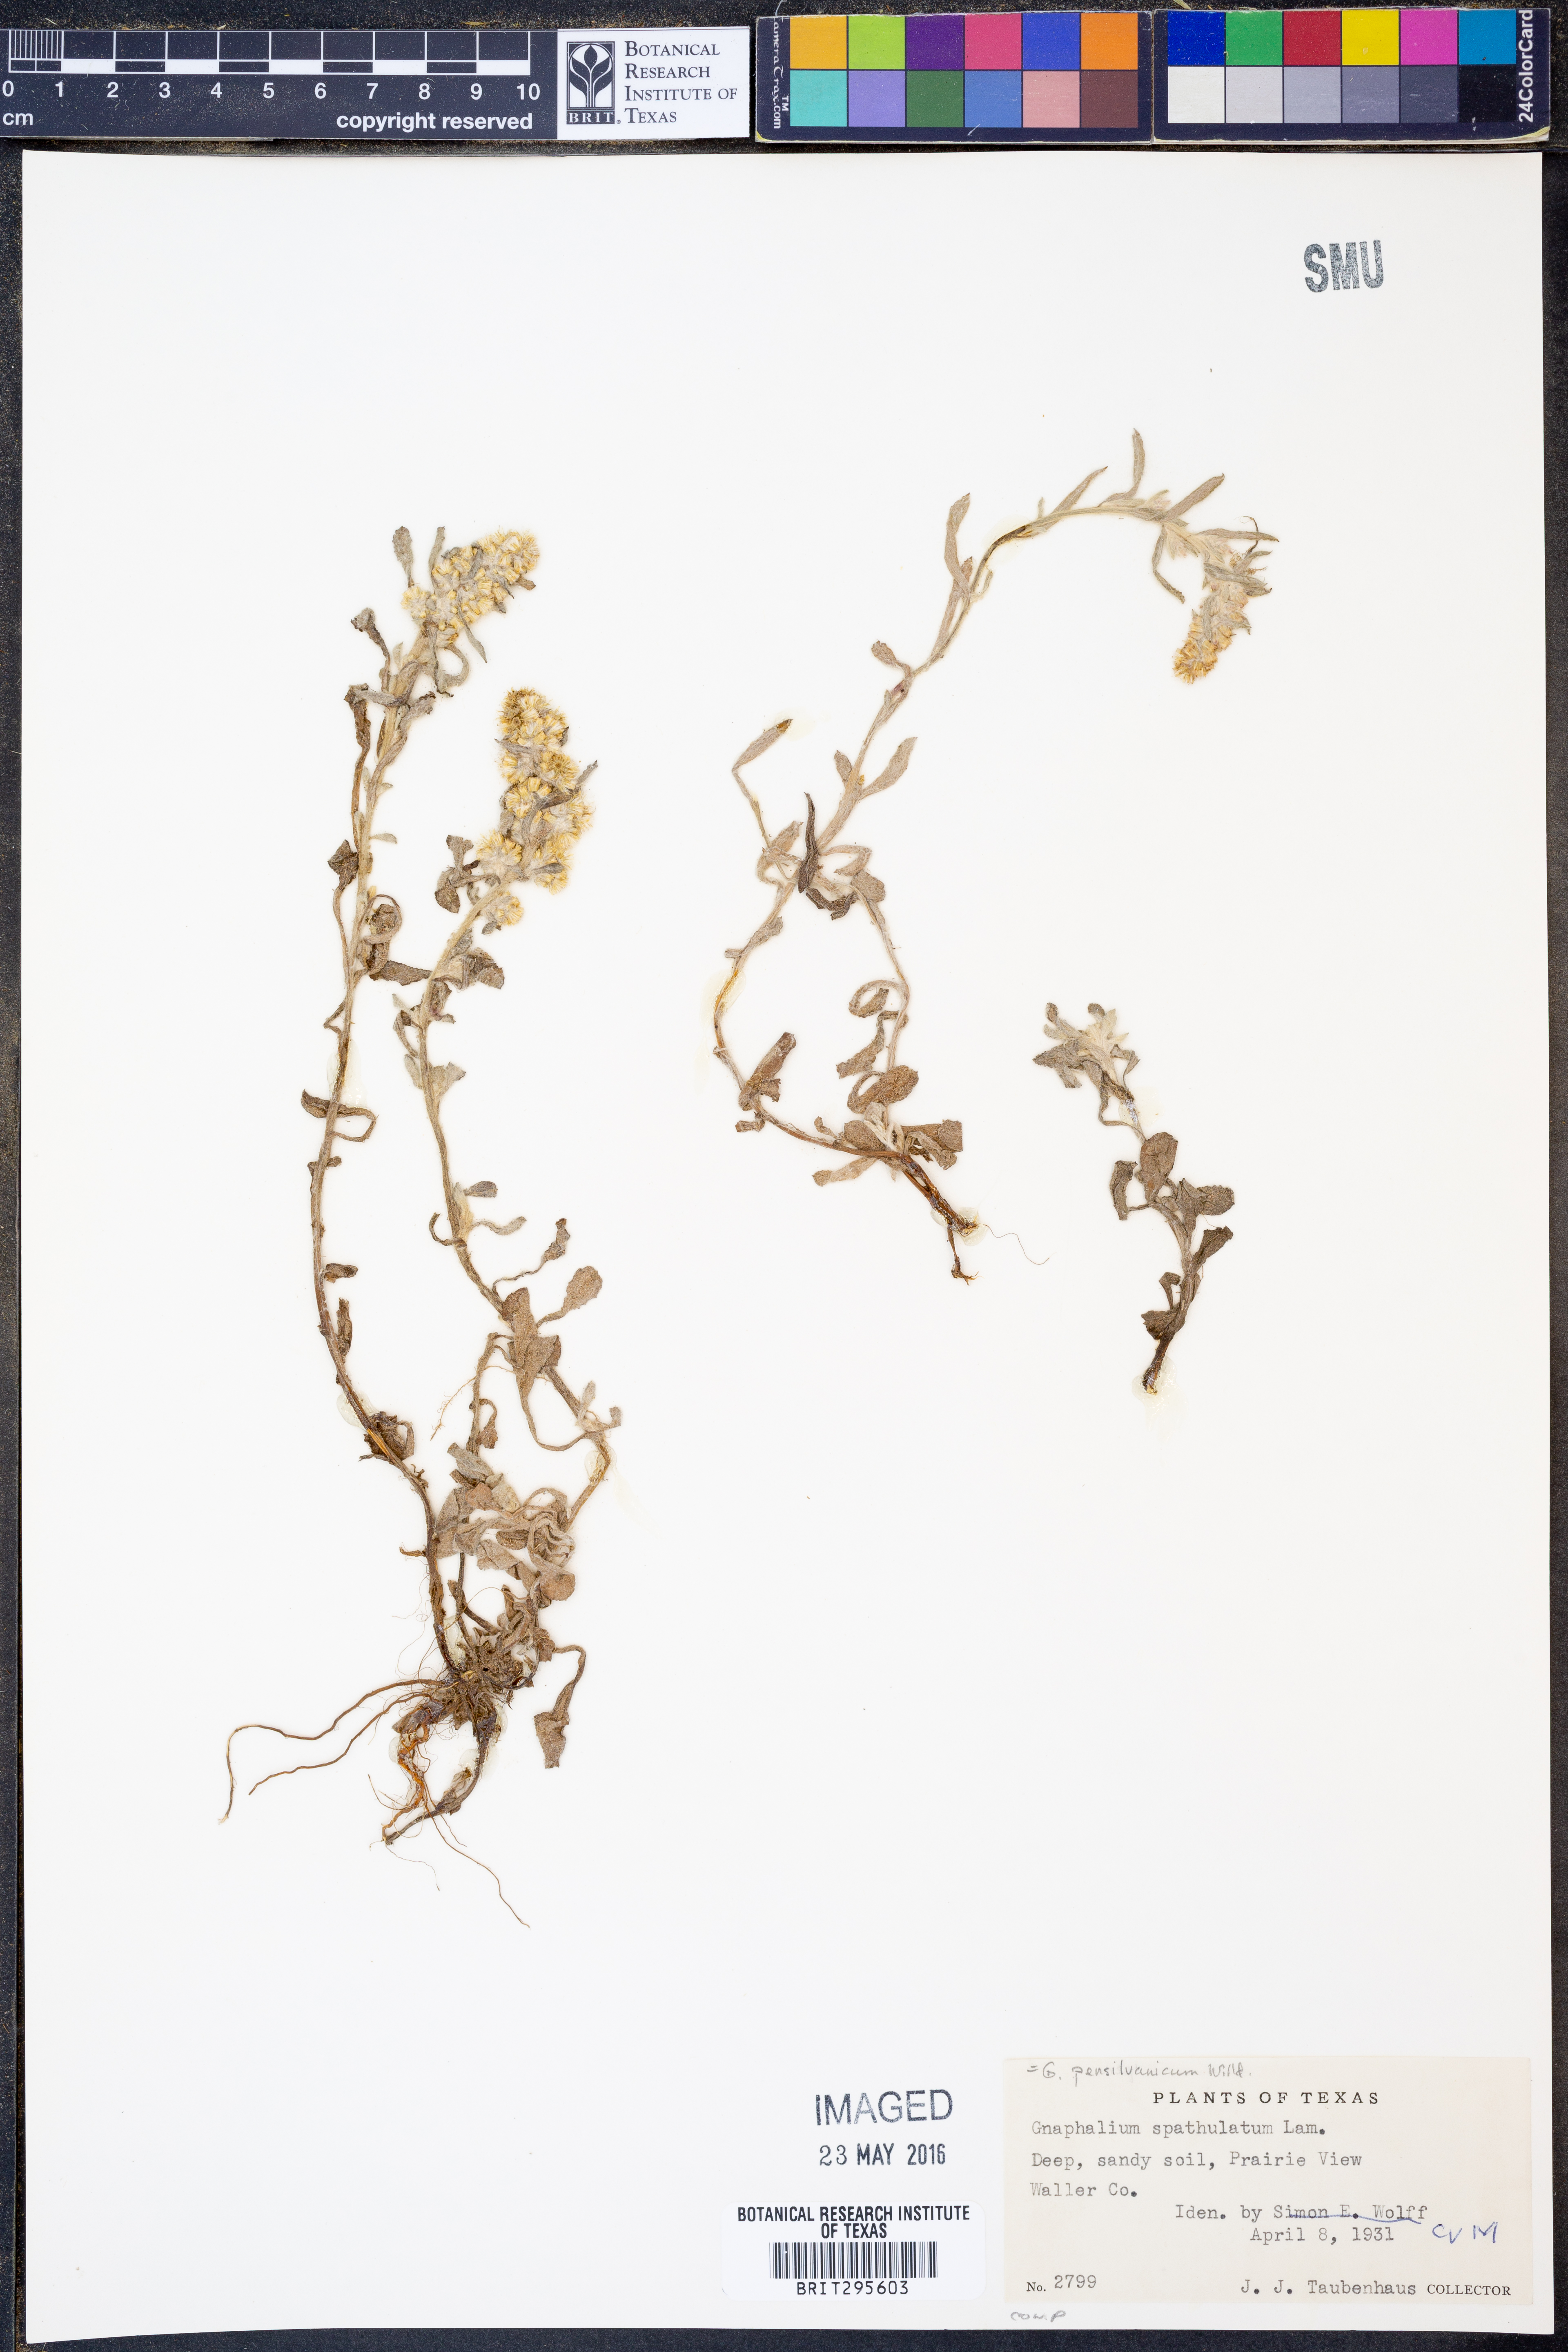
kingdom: Plantae
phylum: Tracheophyta
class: Magnoliopsida
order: Asterales
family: Asteraceae
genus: Gamochaeta
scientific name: Gamochaeta pensylvanica
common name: Pennsylvania everlasting
